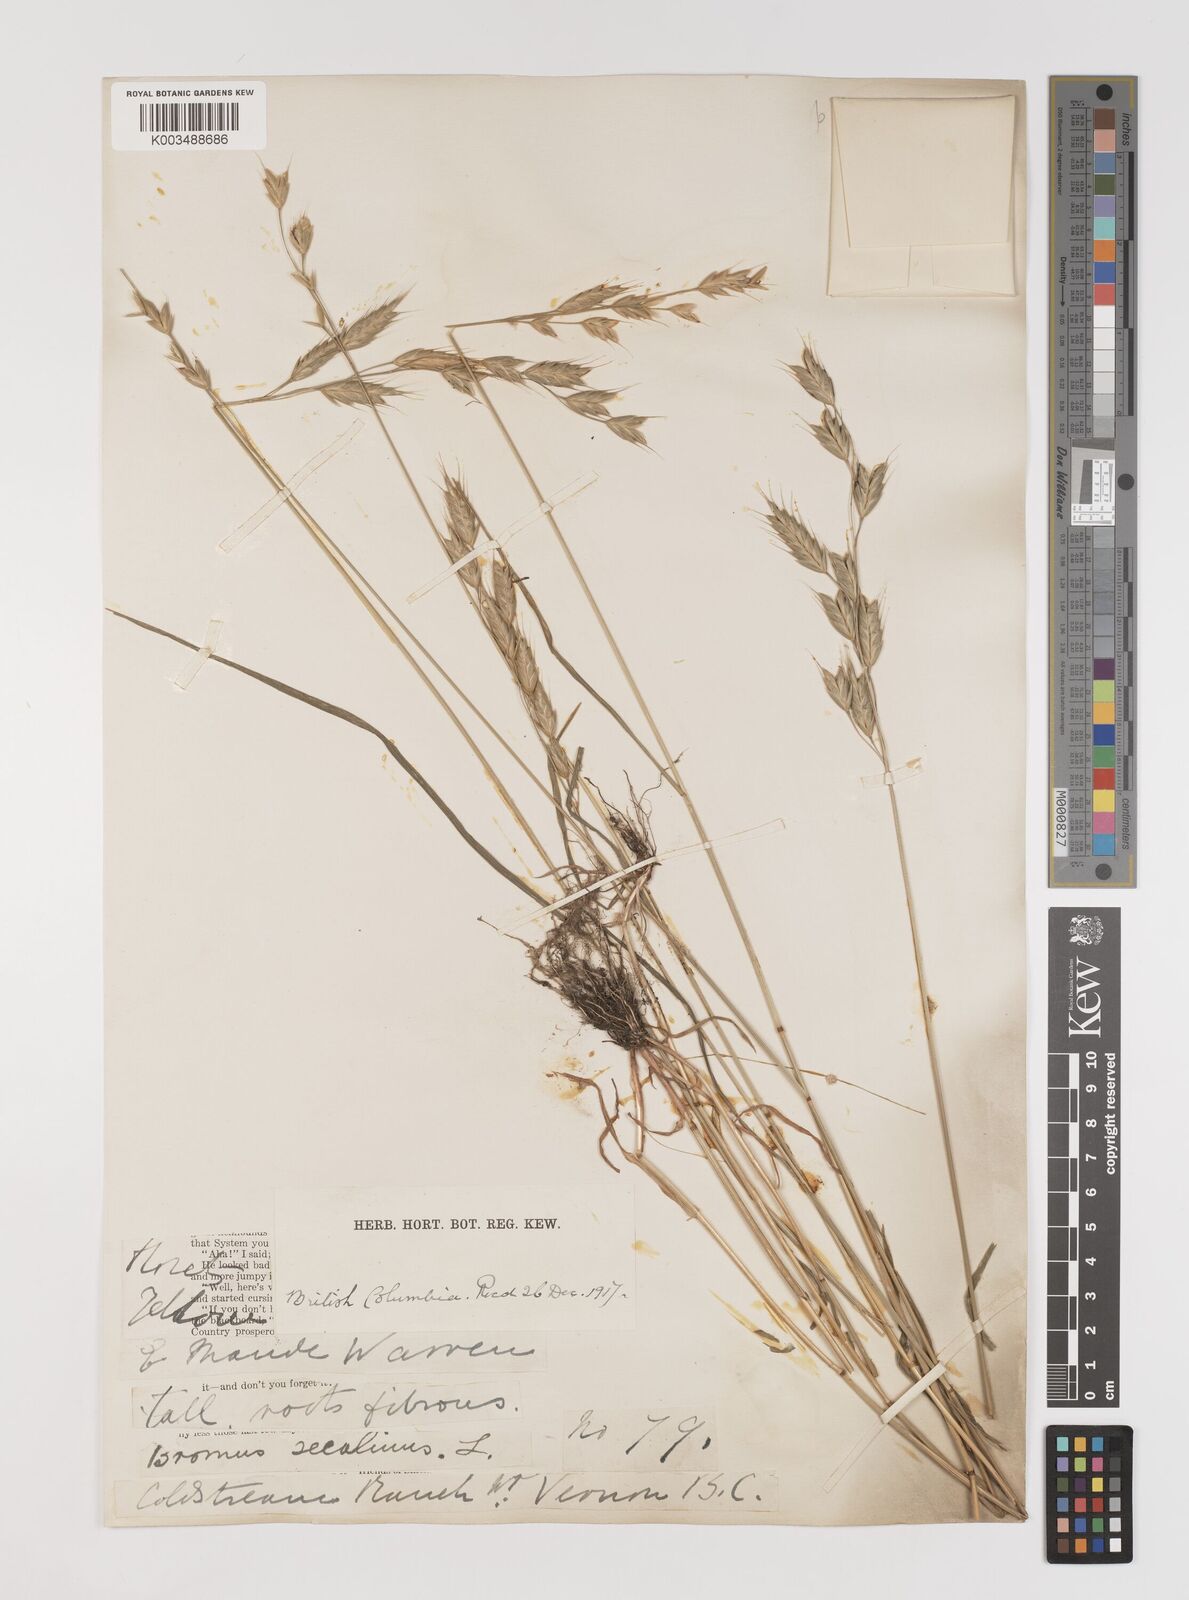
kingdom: Plantae
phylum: Tracheophyta
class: Liliopsida
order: Poales
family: Poaceae
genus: Bromus
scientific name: Bromus racemosus
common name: Bald brome
